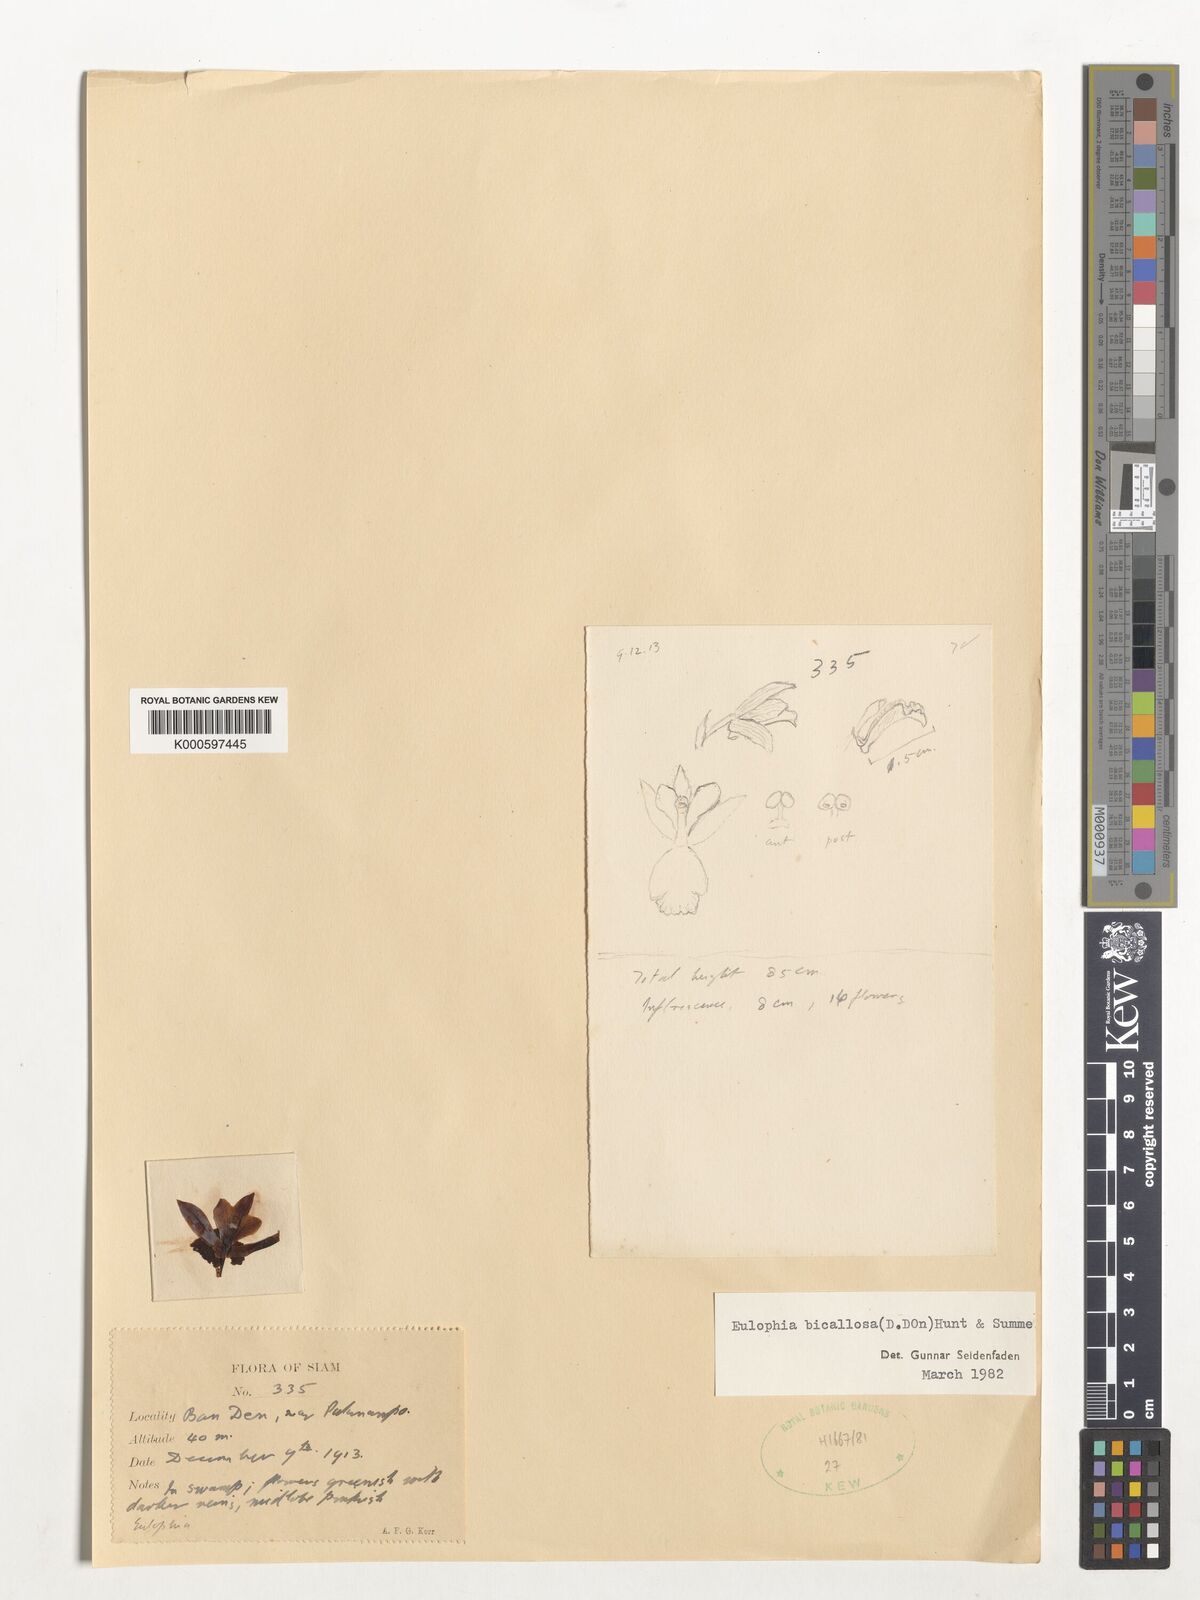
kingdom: Plantae
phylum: Tracheophyta
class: Liliopsida
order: Asparagales
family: Orchidaceae
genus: Eulophia
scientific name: Eulophia bicallosa
